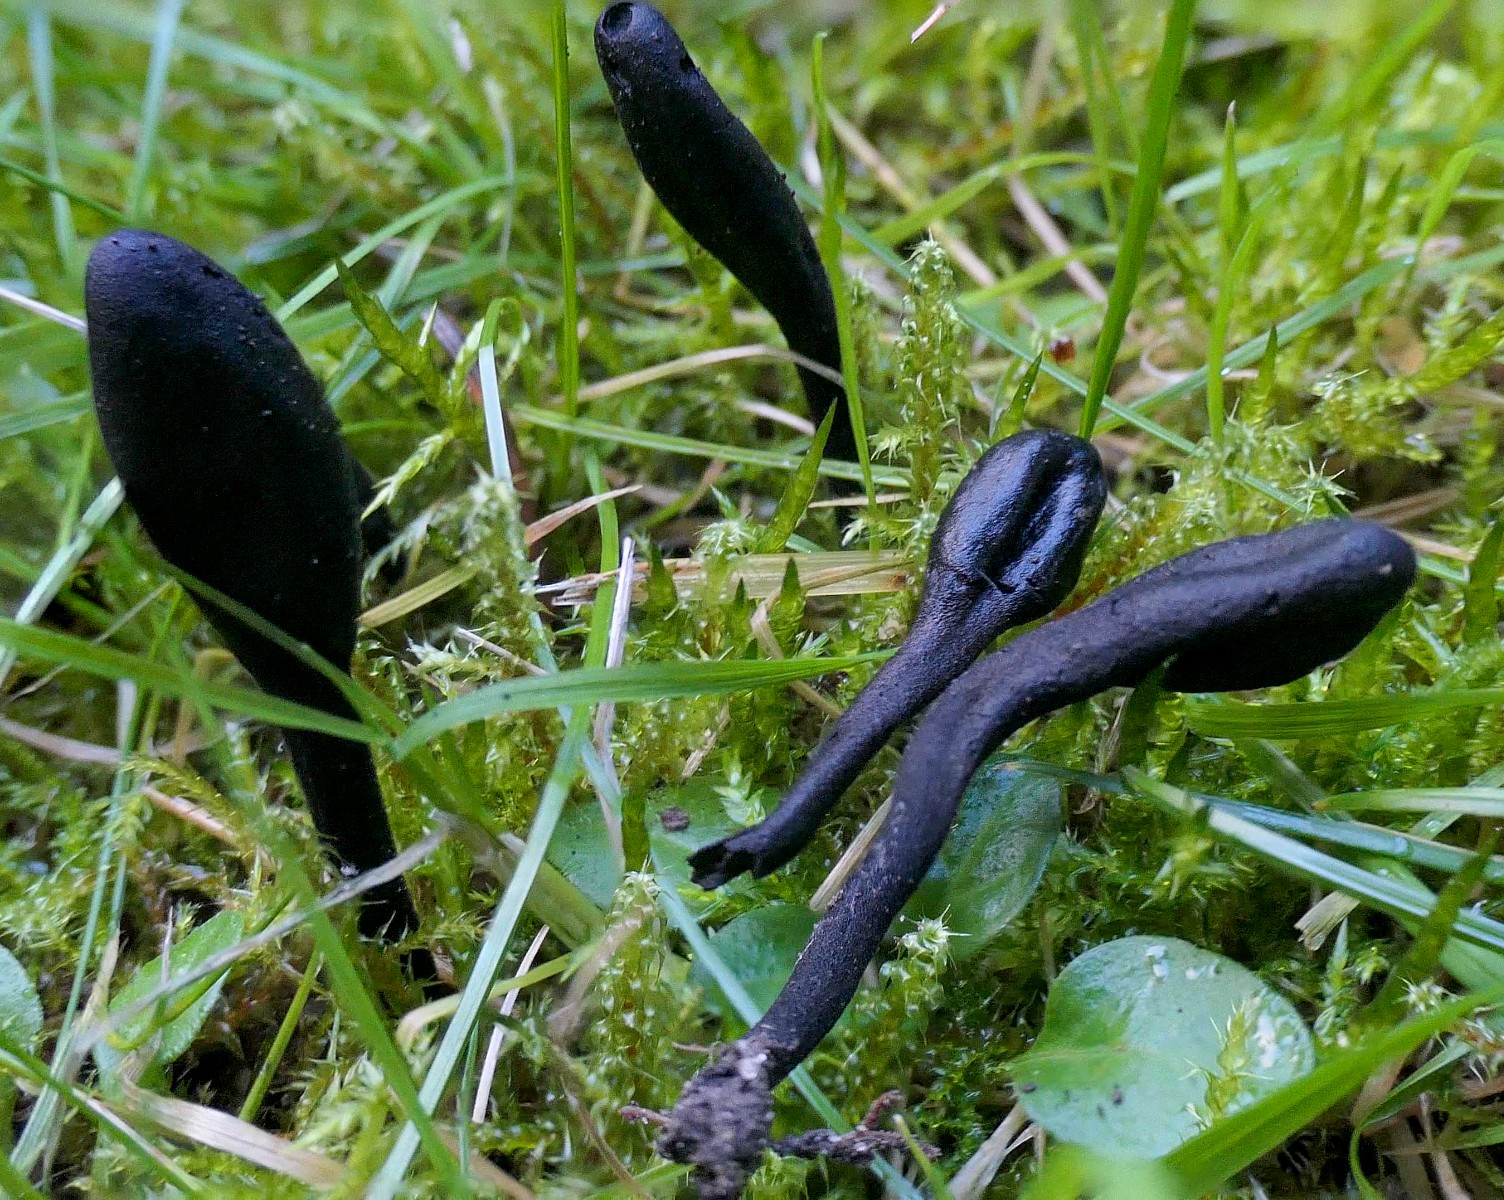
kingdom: Fungi
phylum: Ascomycota
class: Geoglossomycetes
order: Geoglossales
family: Geoglossaceae
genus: Geoglossum
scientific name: Geoglossum
